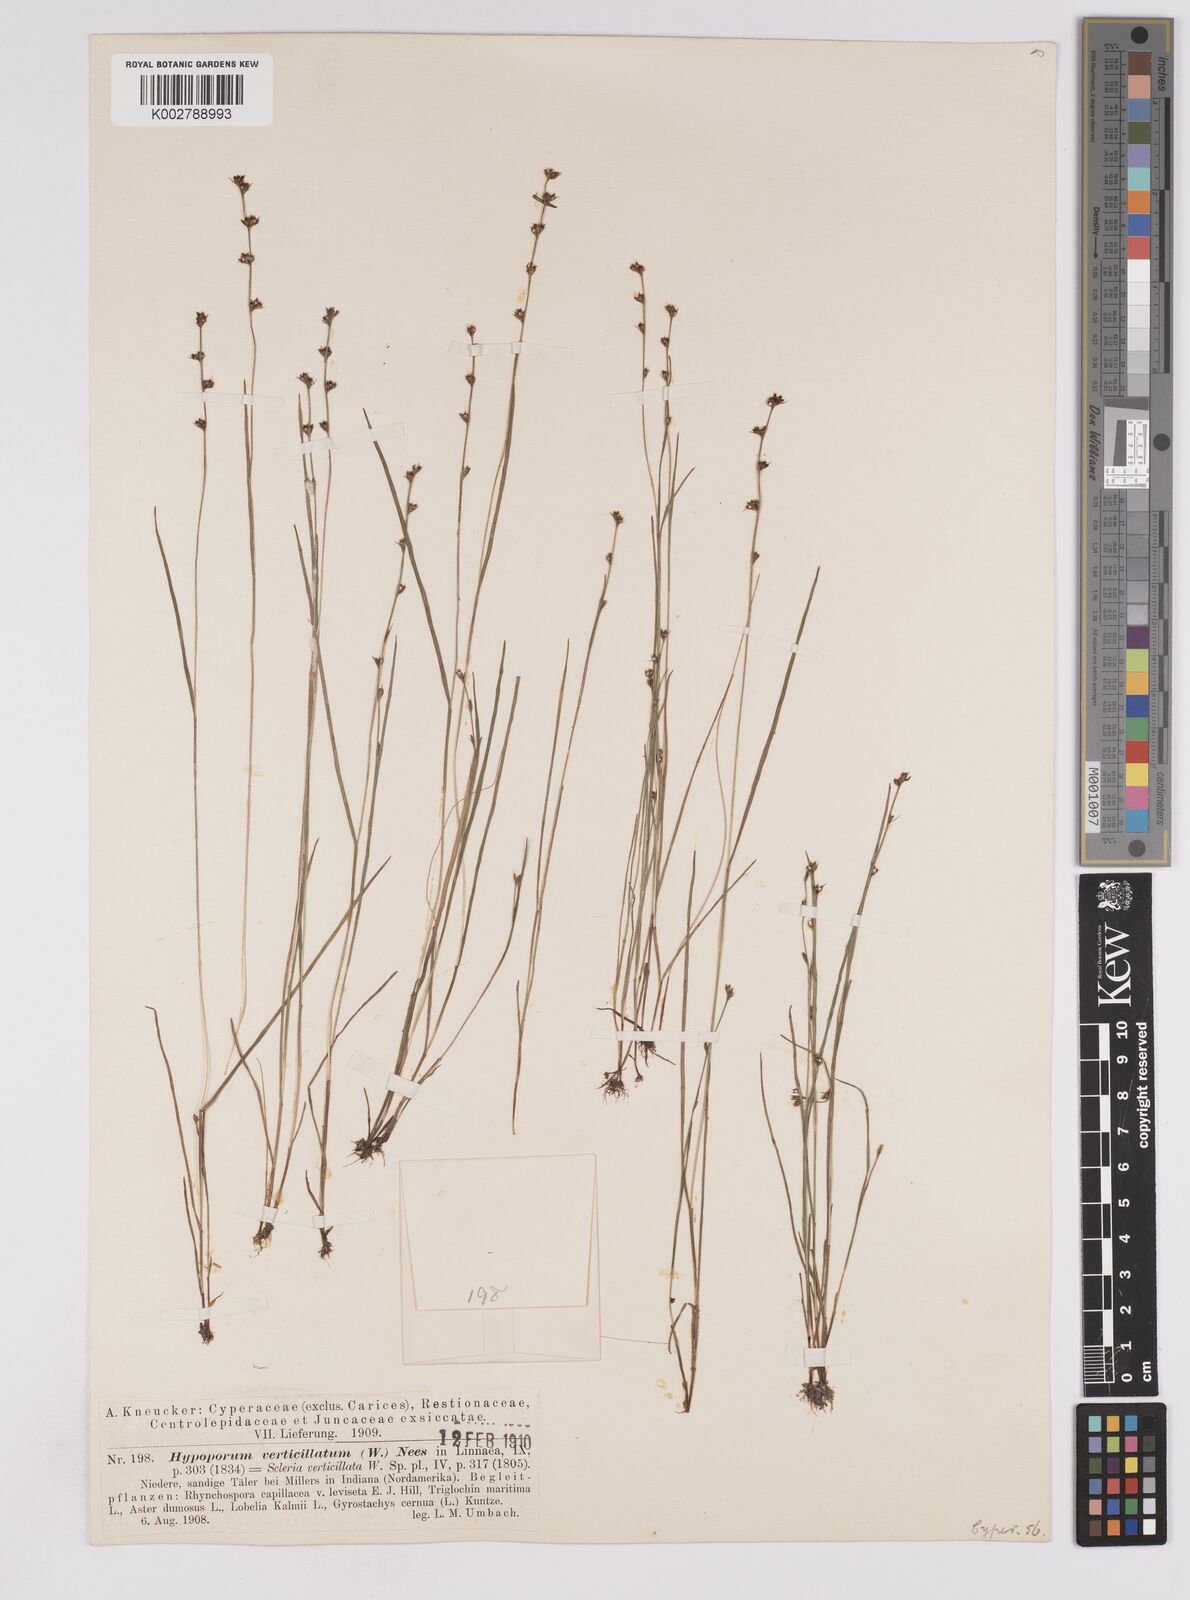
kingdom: Plantae
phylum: Tracheophyta
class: Liliopsida
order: Poales
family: Cyperaceae
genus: Scleria
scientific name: Scleria verticillata
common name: Low nutrush
